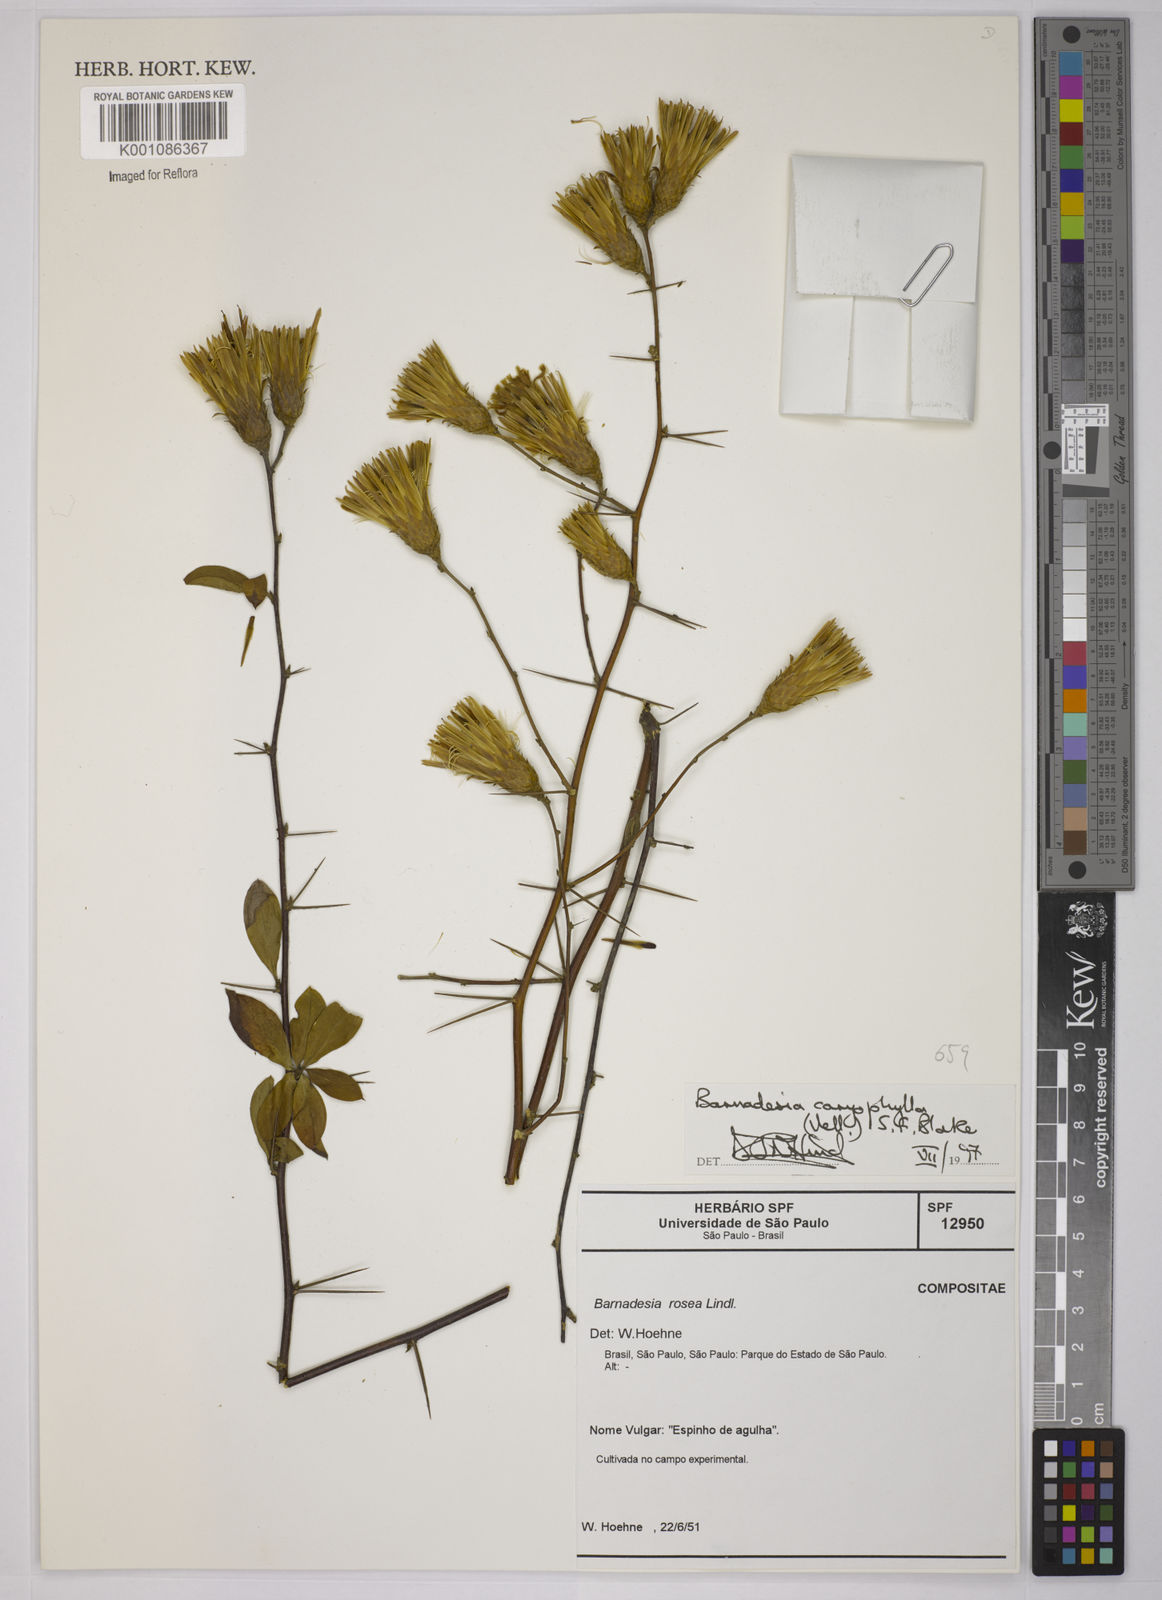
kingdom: Plantae
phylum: Tracheophyta
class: Magnoliopsida
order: Asterales
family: Asteraceae
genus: Barnadesia
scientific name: Barnadesia caryophylla
